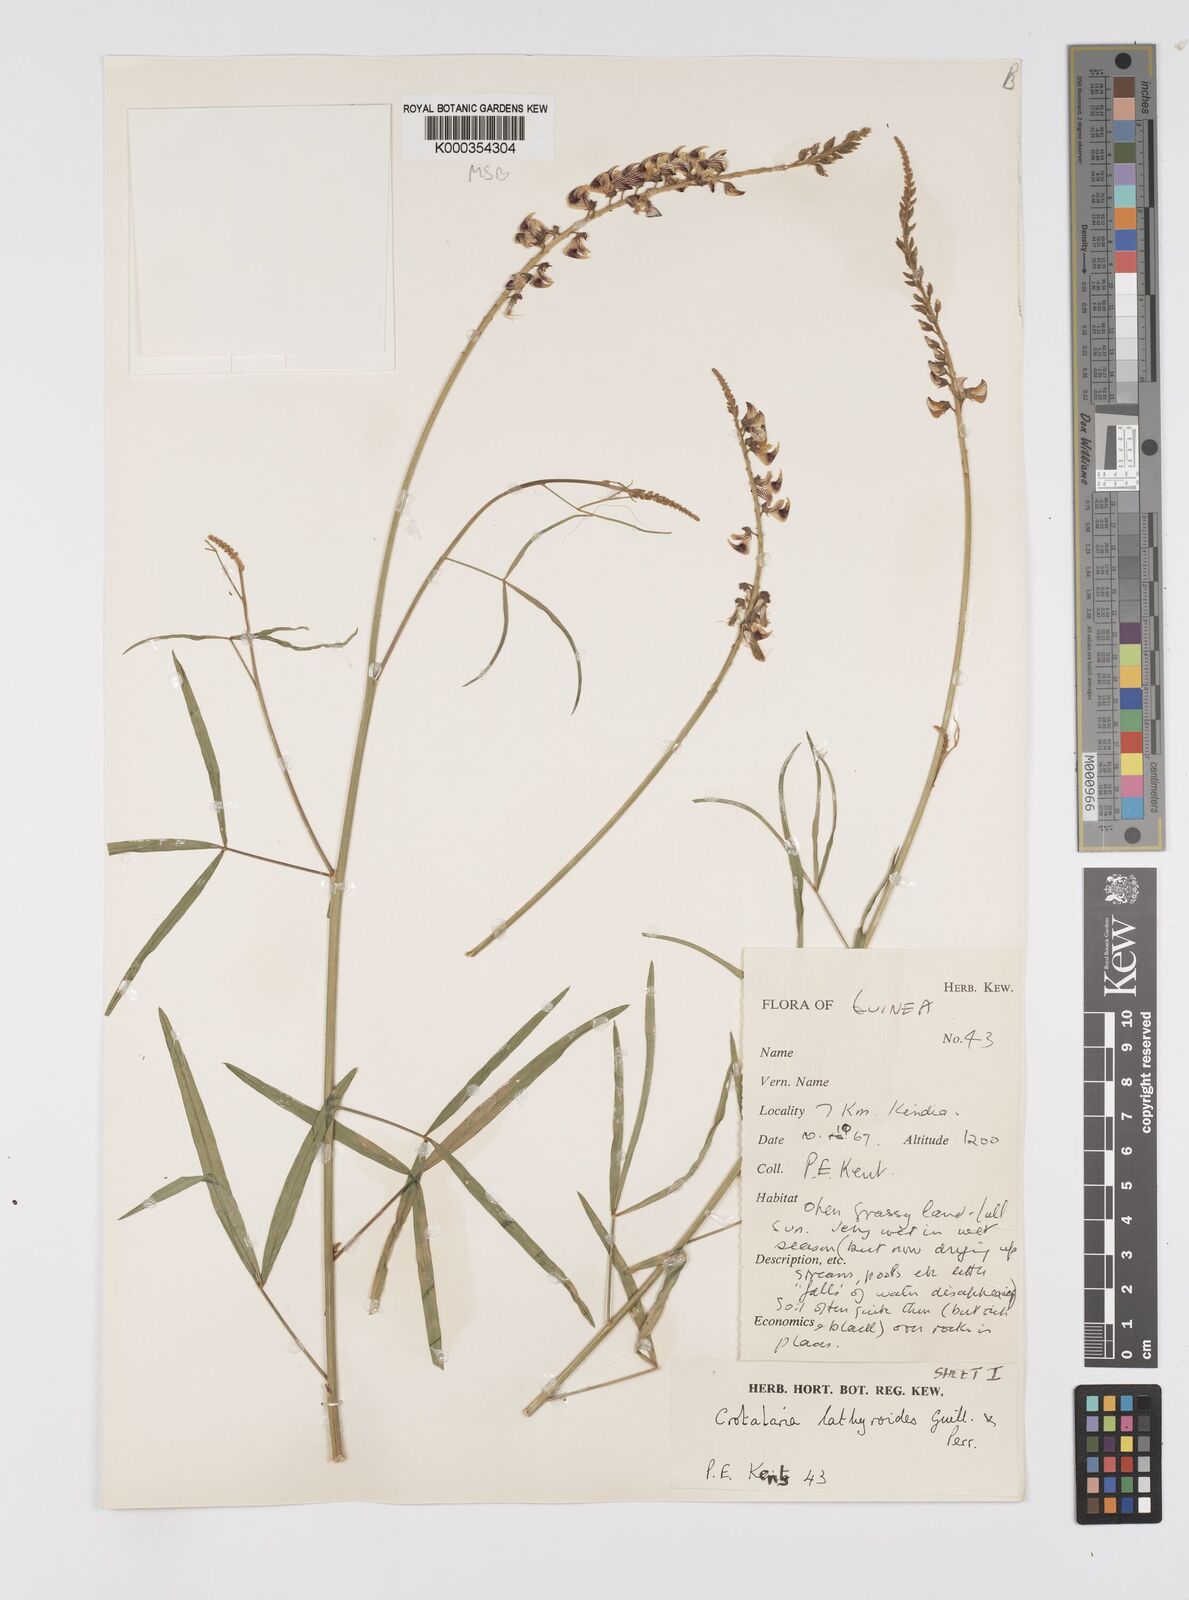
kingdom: Plantae
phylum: Tracheophyta
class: Magnoliopsida
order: Fabales
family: Fabaceae
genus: Crotalaria
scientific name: Crotalaria lathyroides
